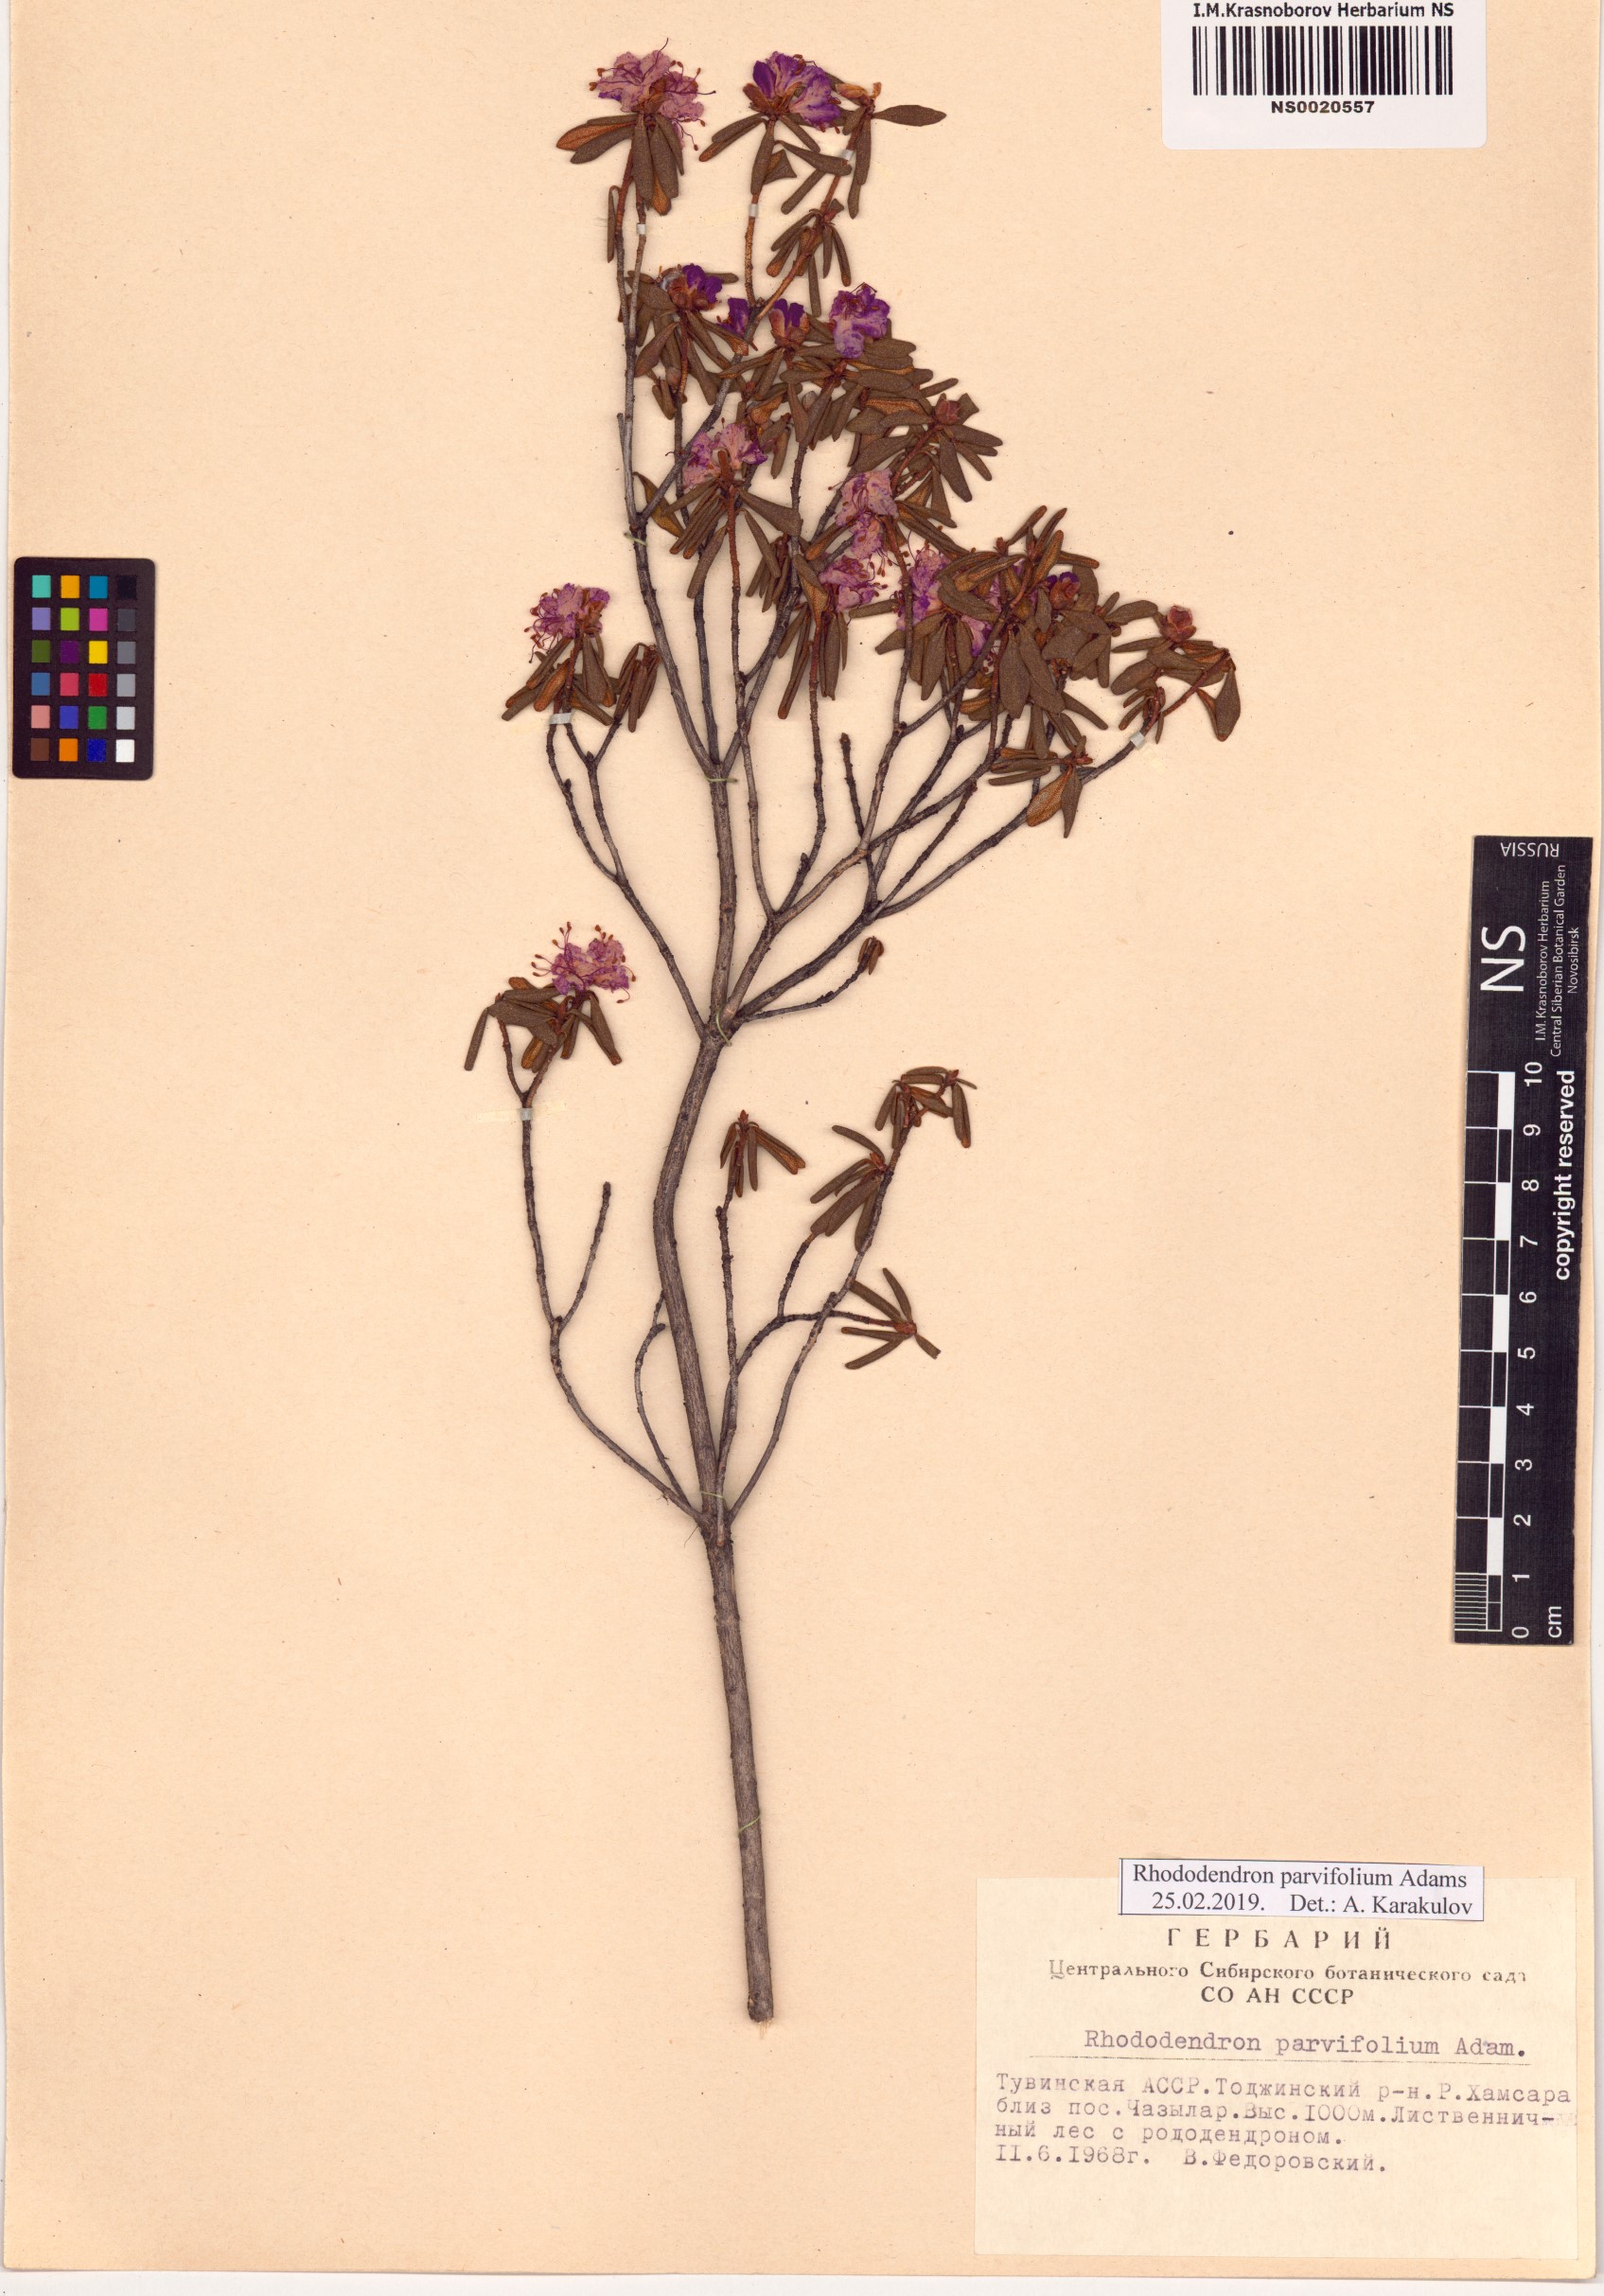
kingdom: Plantae
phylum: Tracheophyta
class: Magnoliopsida
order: Ericales
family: Ericaceae
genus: Rhododendron
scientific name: Rhododendron parvifolium
